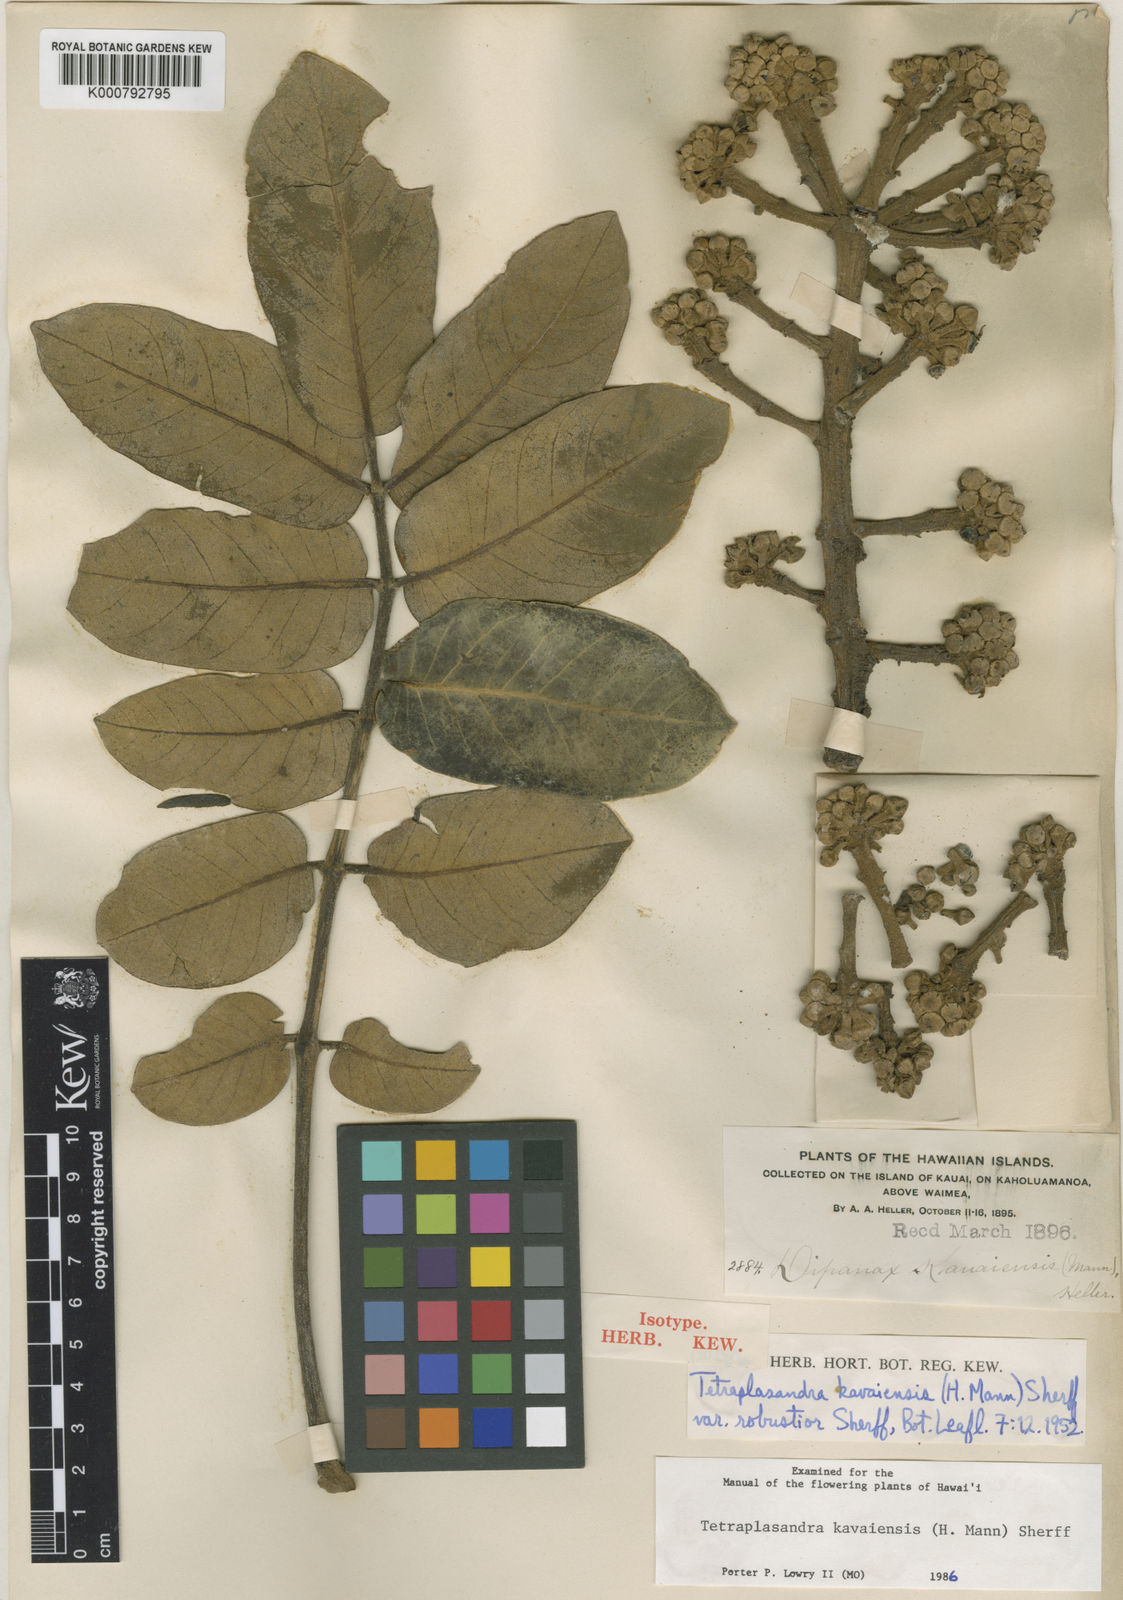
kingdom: Plantae
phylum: Tracheophyta
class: Magnoliopsida
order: Apiales
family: Araliaceae
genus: Polyscias
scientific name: Polyscias kavaiensis
